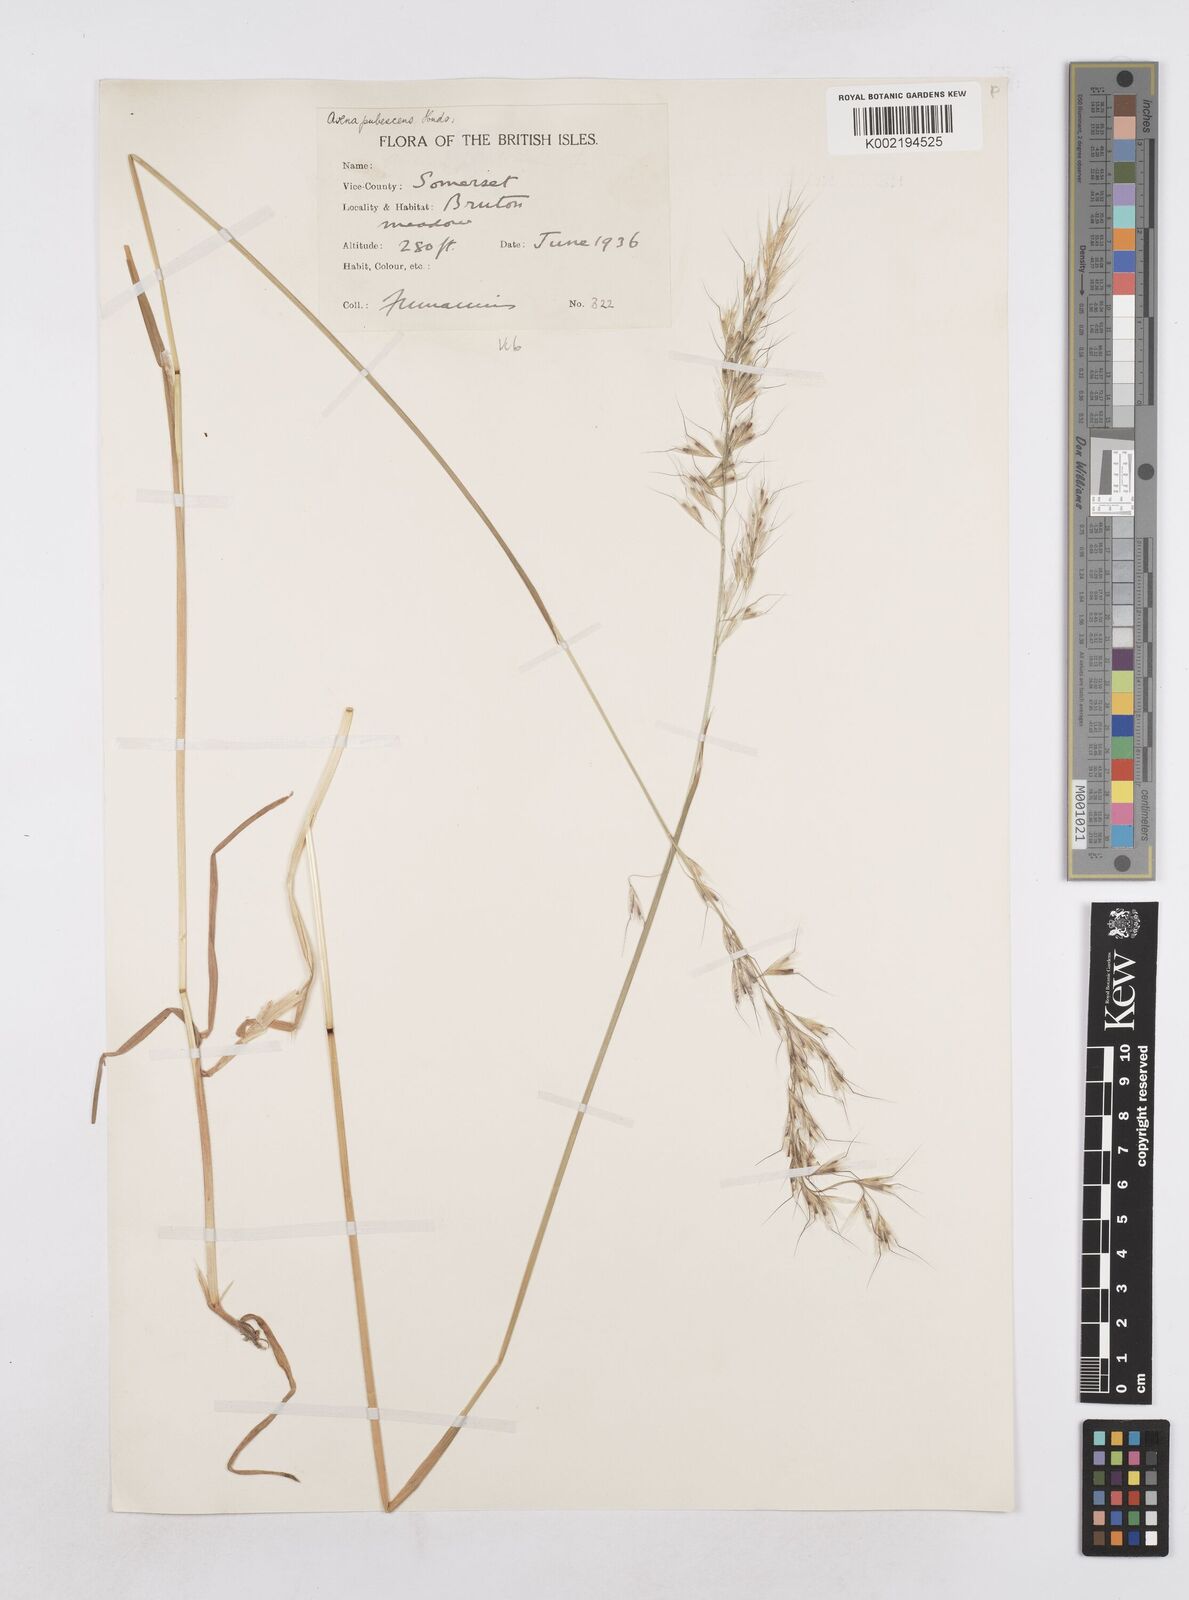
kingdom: Plantae
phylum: Tracheophyta
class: Liliopsida
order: Poales
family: Poaceae
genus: Avenula
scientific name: Avenula pubescens
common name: Downy alpine oatgrass
